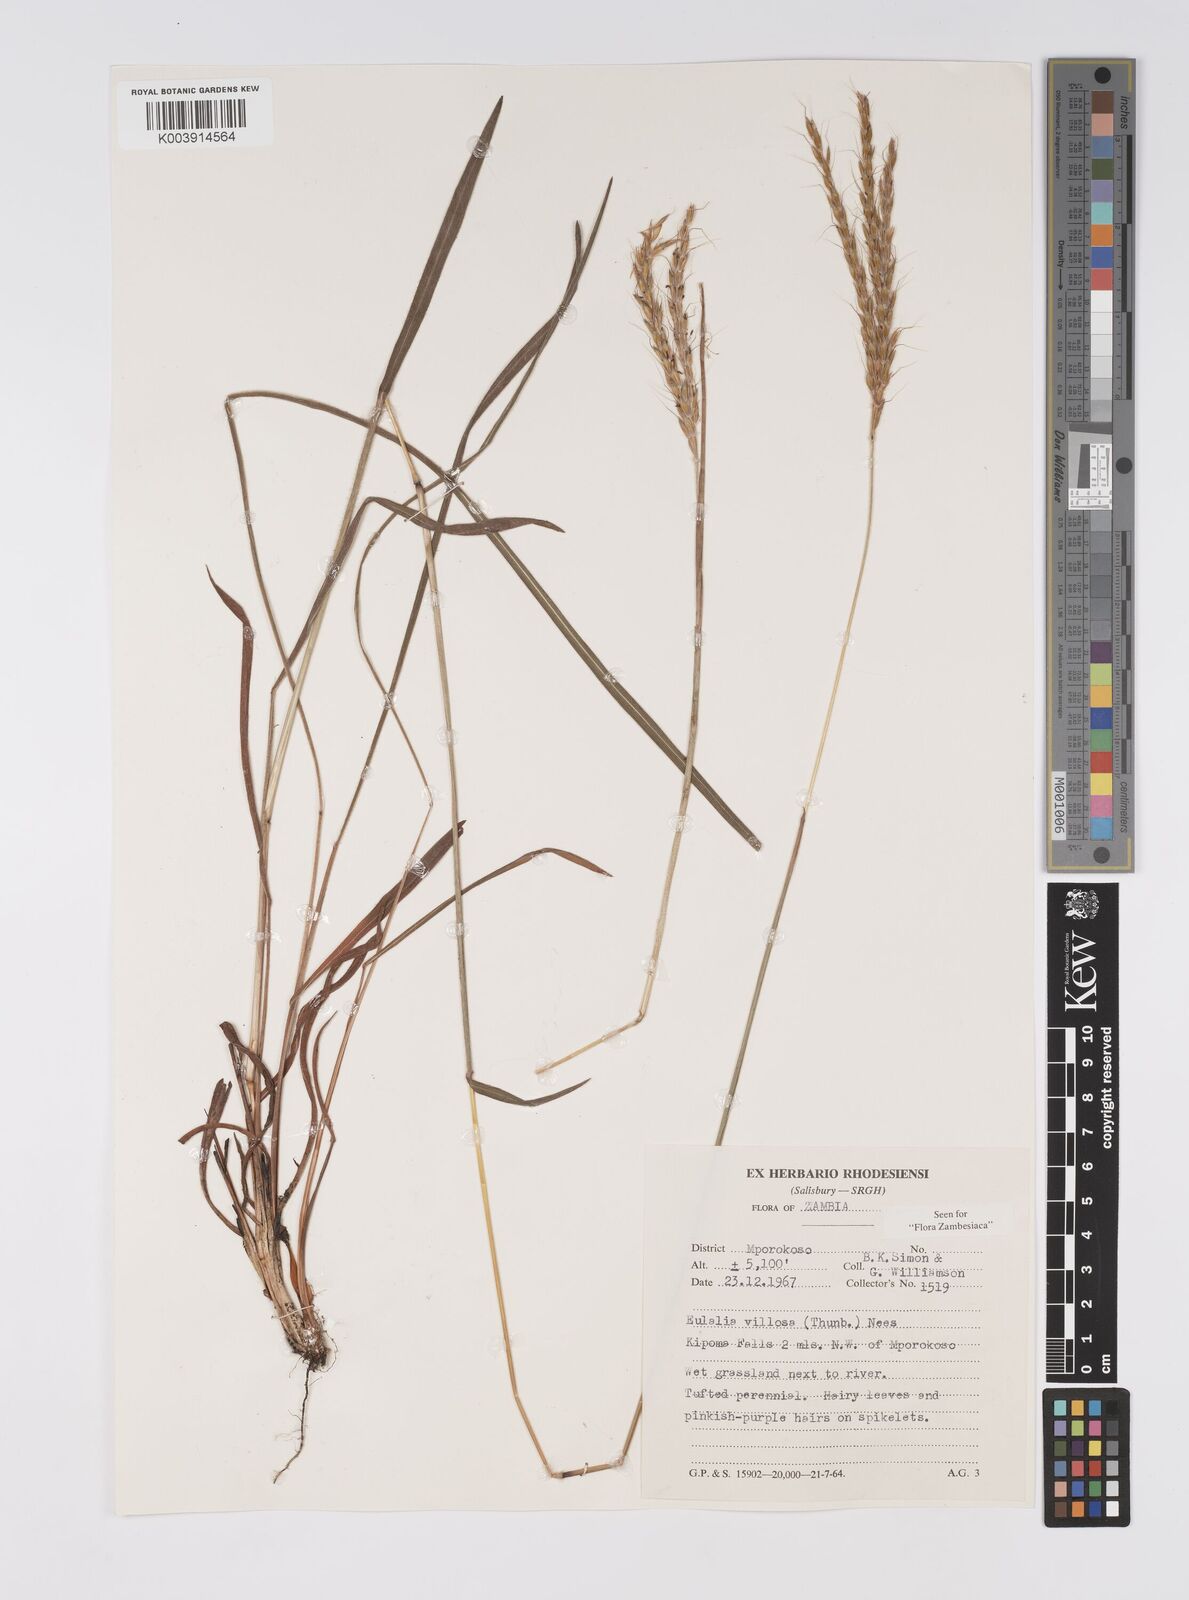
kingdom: Plantae
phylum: Tracheophyta
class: Liliopsida
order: Poales
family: Poaceae
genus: Eulalia
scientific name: Eulalia villosa
